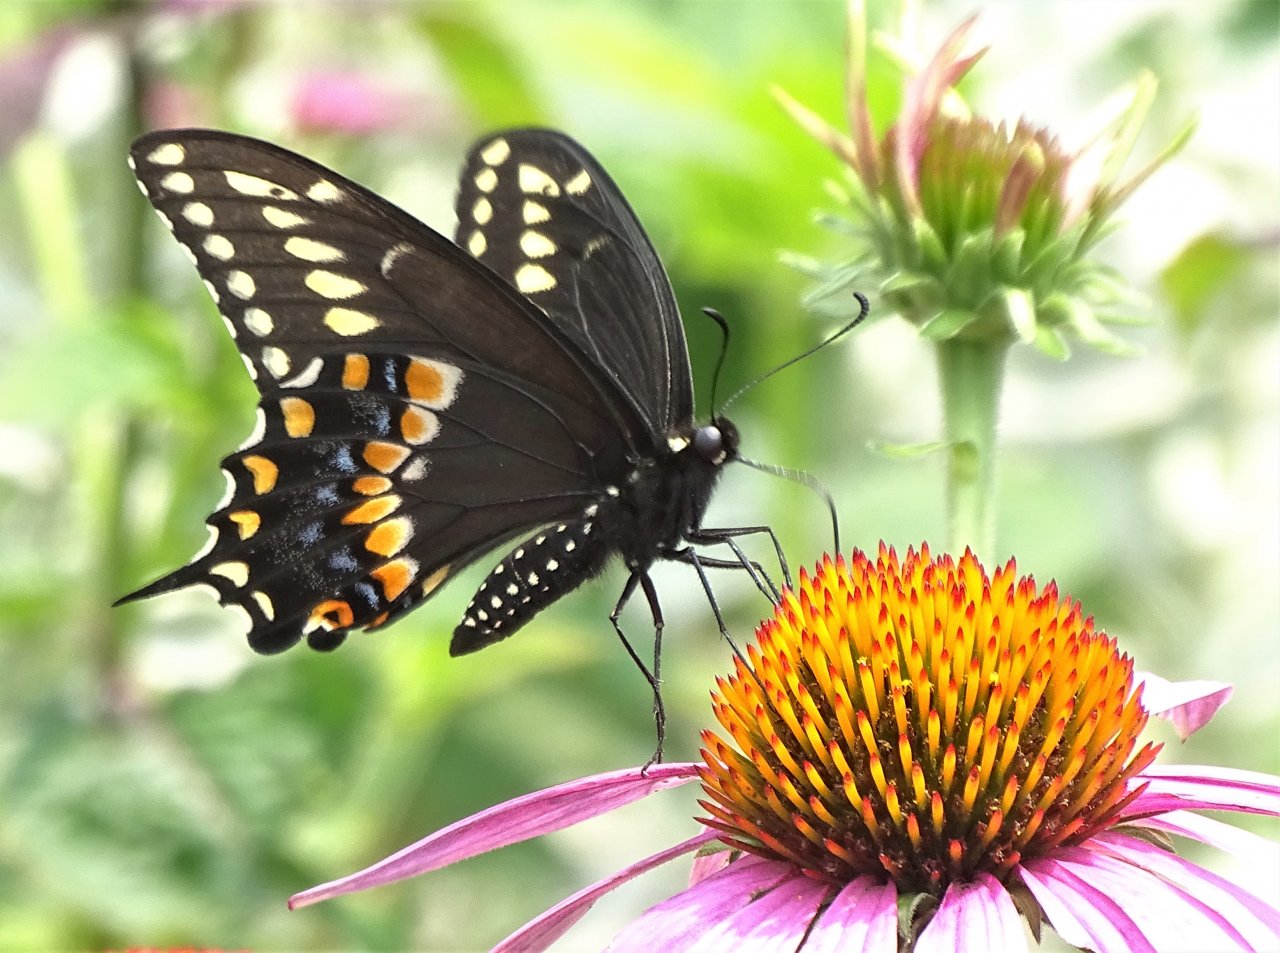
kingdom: Animalia
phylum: Arthropoda
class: Insecta
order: Lepidoptera
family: Papilionidae
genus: Papilio
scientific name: Papilio polyxenes
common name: Black Swallowtail
